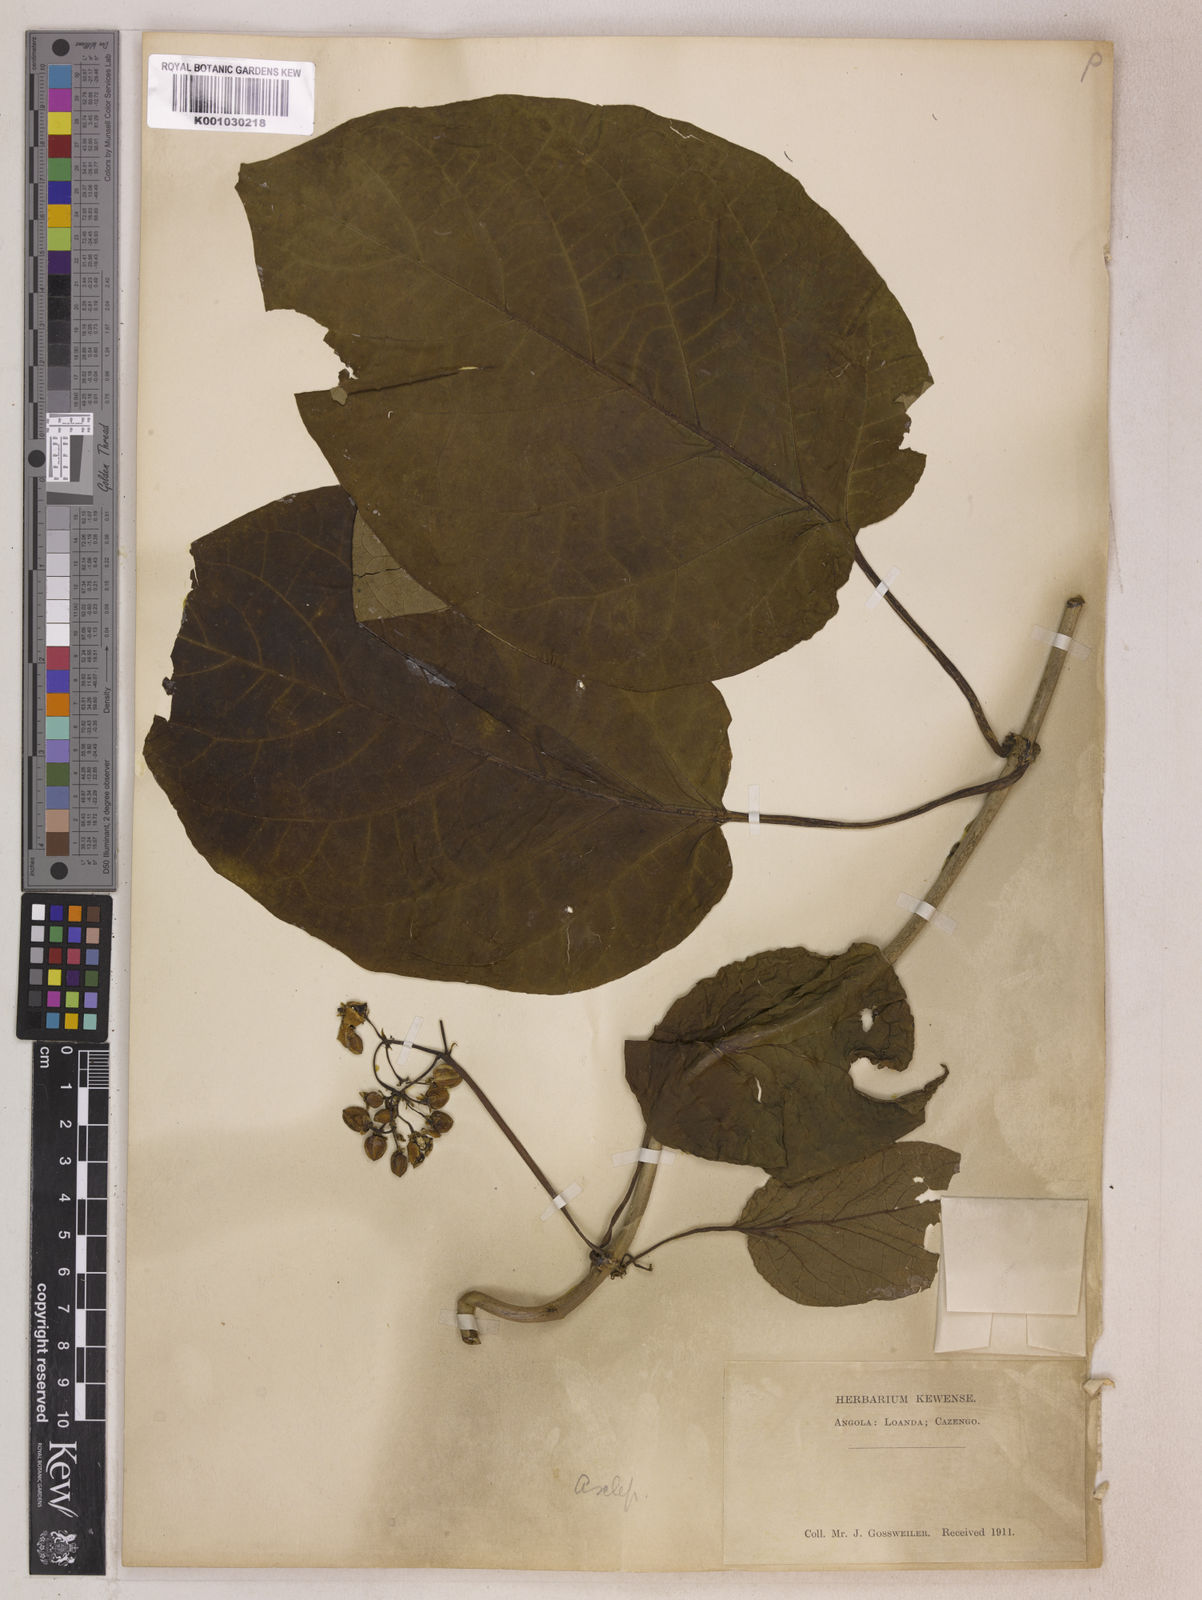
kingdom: Plantae
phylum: Tracheophyta
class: Magnoliopsida
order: Gentianales
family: Apocynaceae
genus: Mondia
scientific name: Mondia whitei
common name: Mondia
